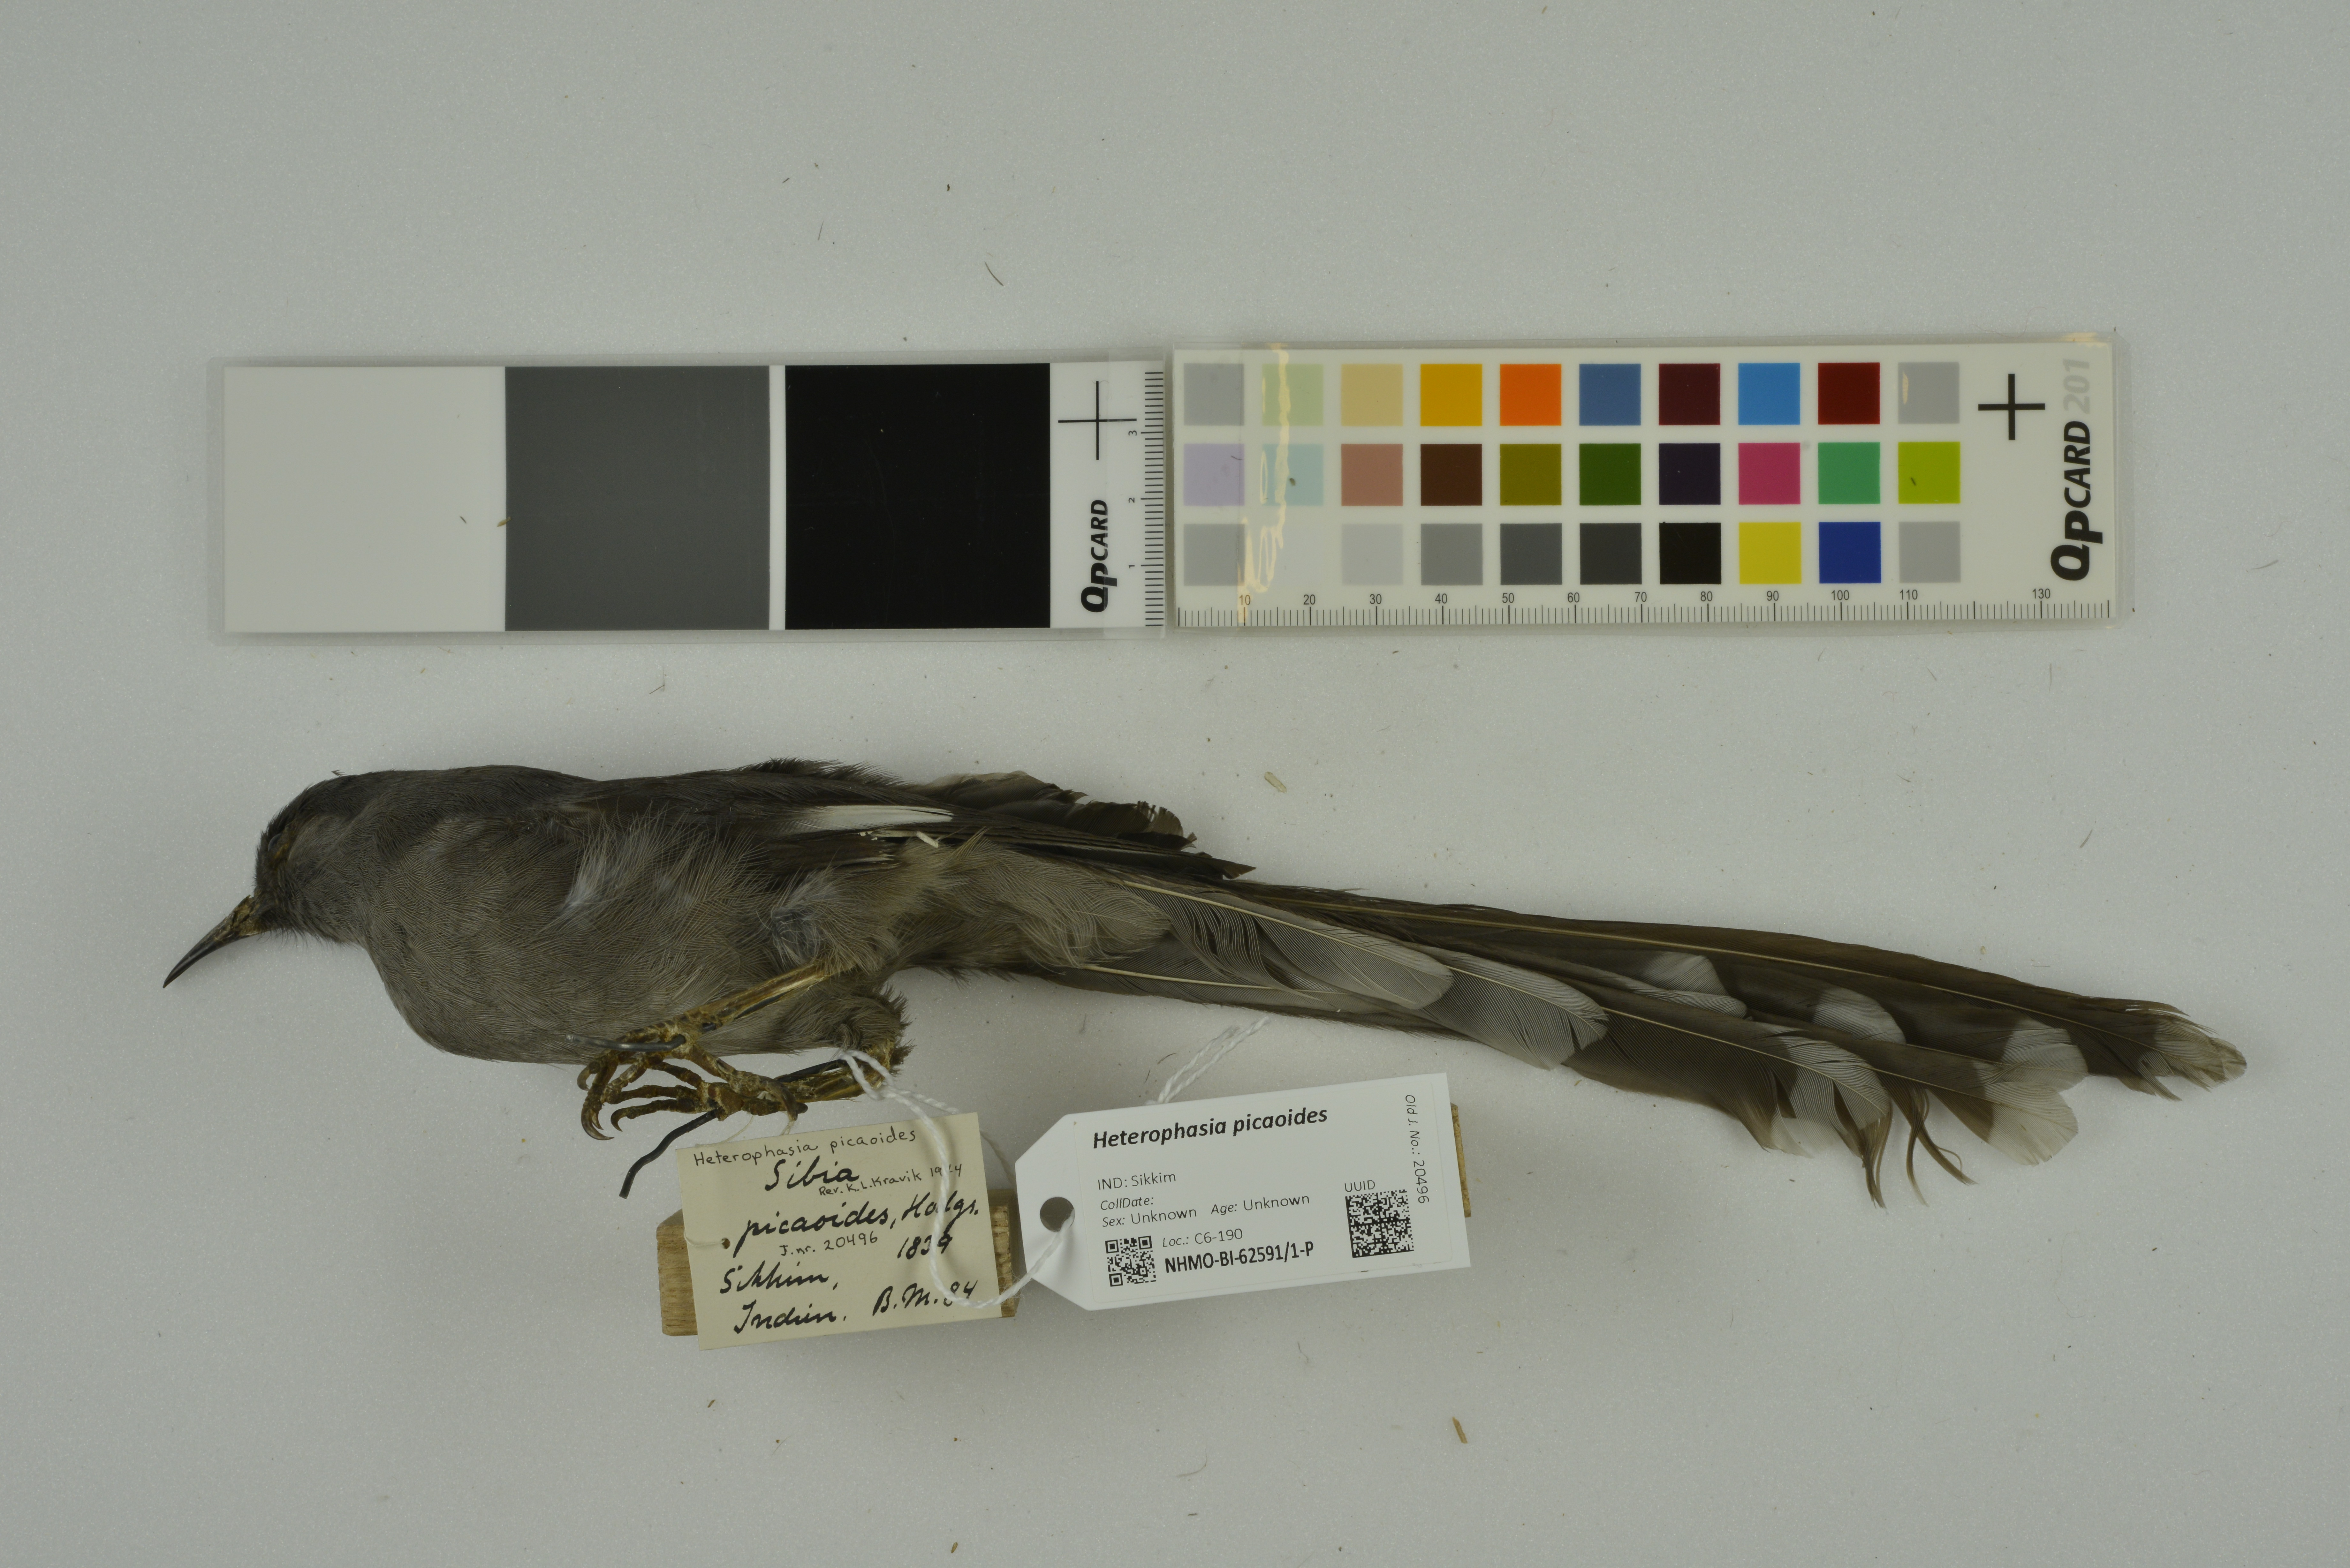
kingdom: Animalia
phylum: Chordata
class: Aves
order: Passeriformes
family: Leiothrichidae
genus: Heterophasia
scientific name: Heterophasia picaoides
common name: Long-tailed sibia
